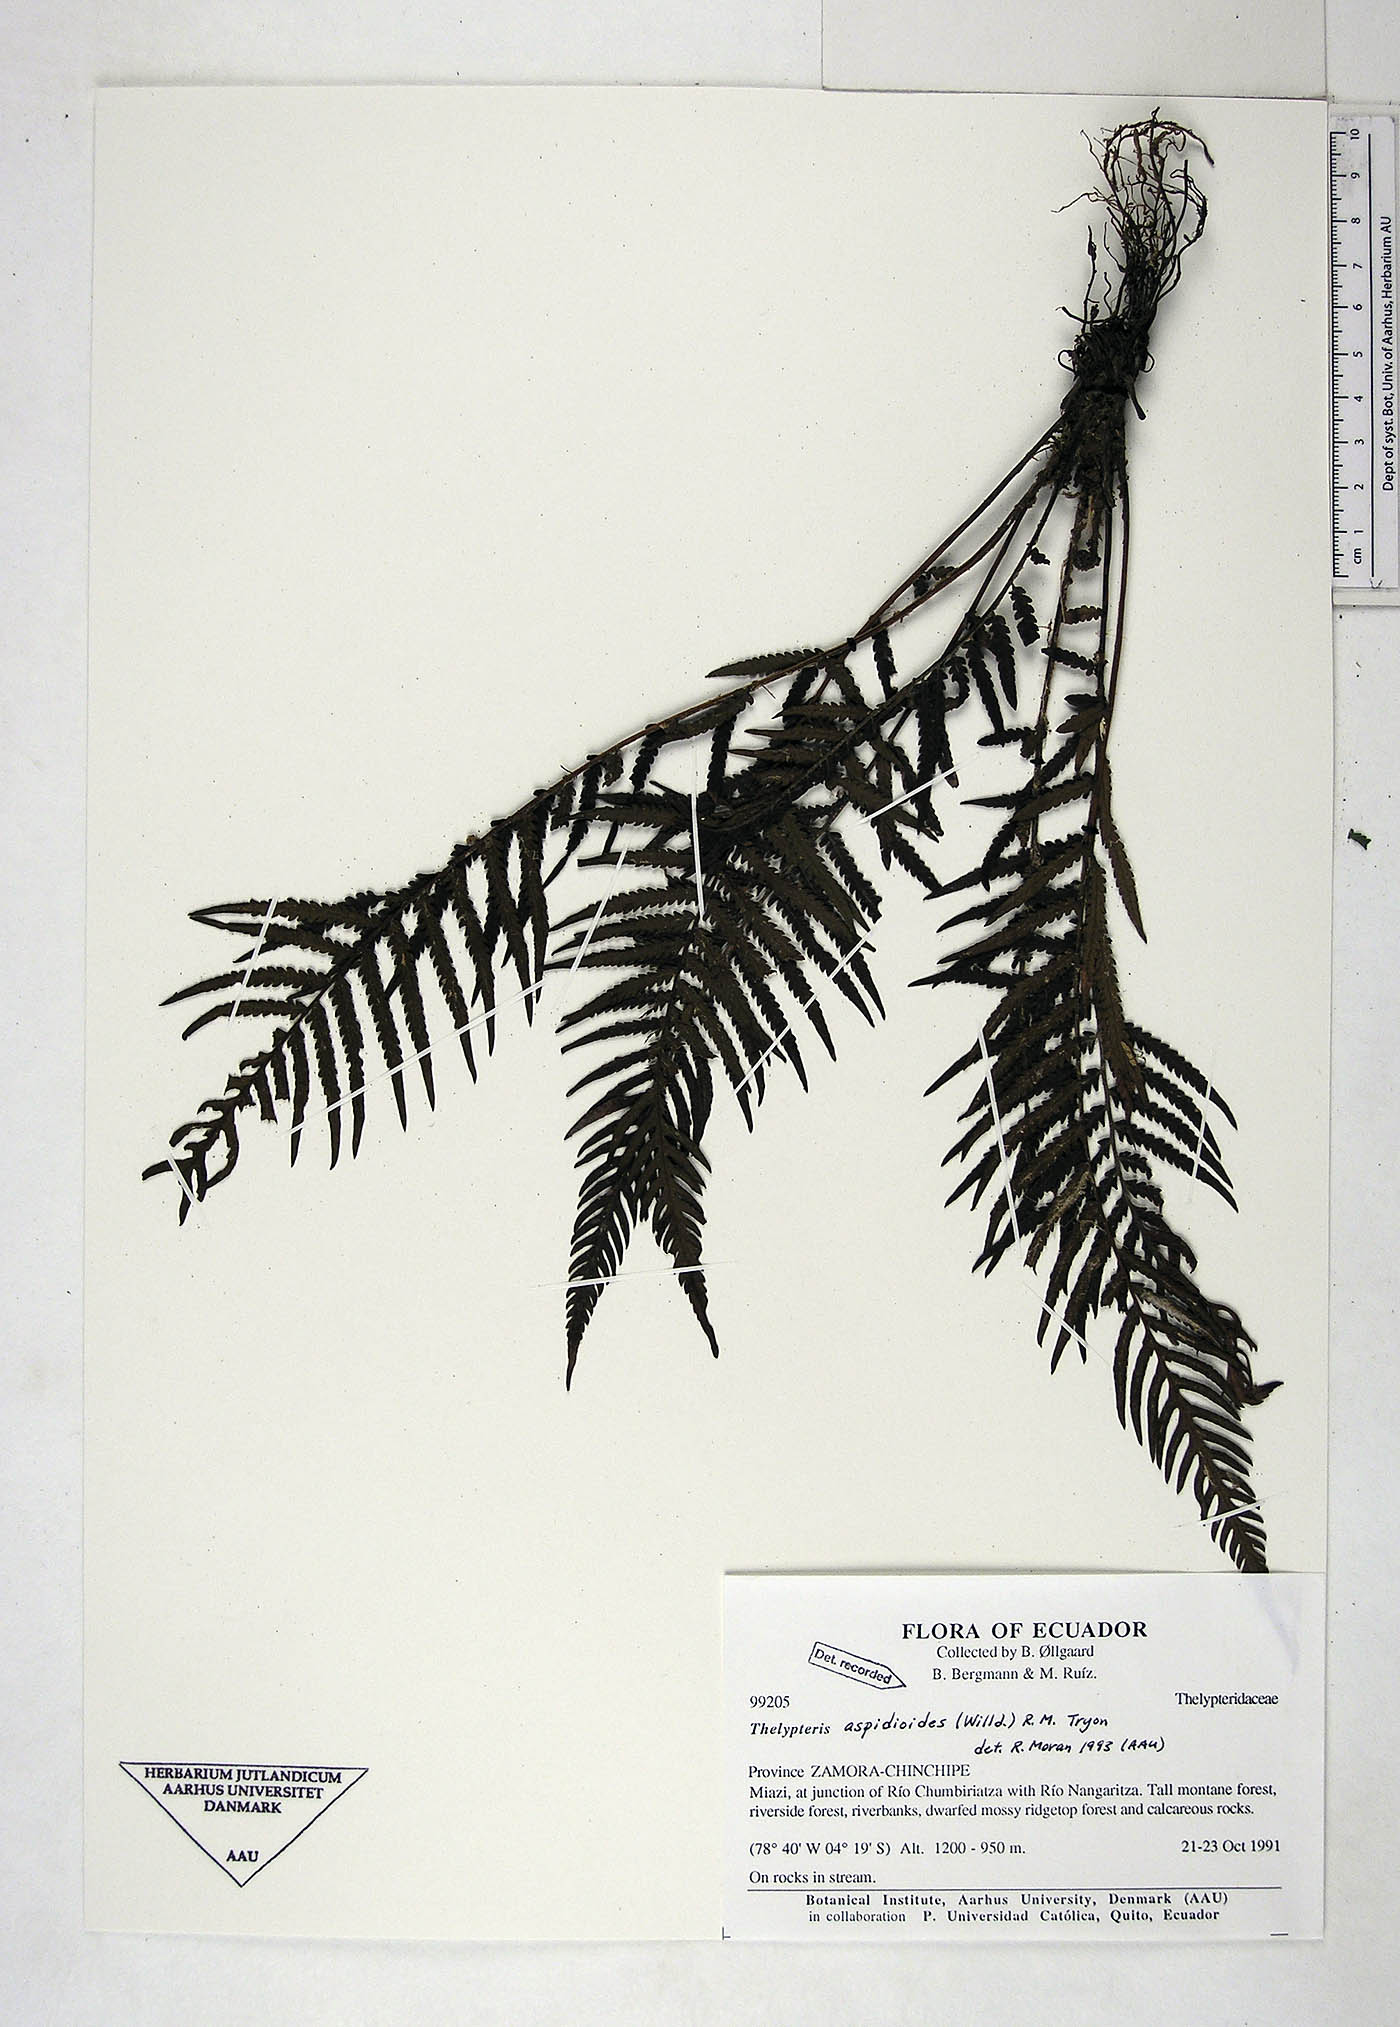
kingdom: Plantae
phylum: Tracheophyta
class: Polypodiopsida
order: Polypodiales
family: Thelypteridaceae
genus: Amauropelta
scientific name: Amauropelta aspidioides
